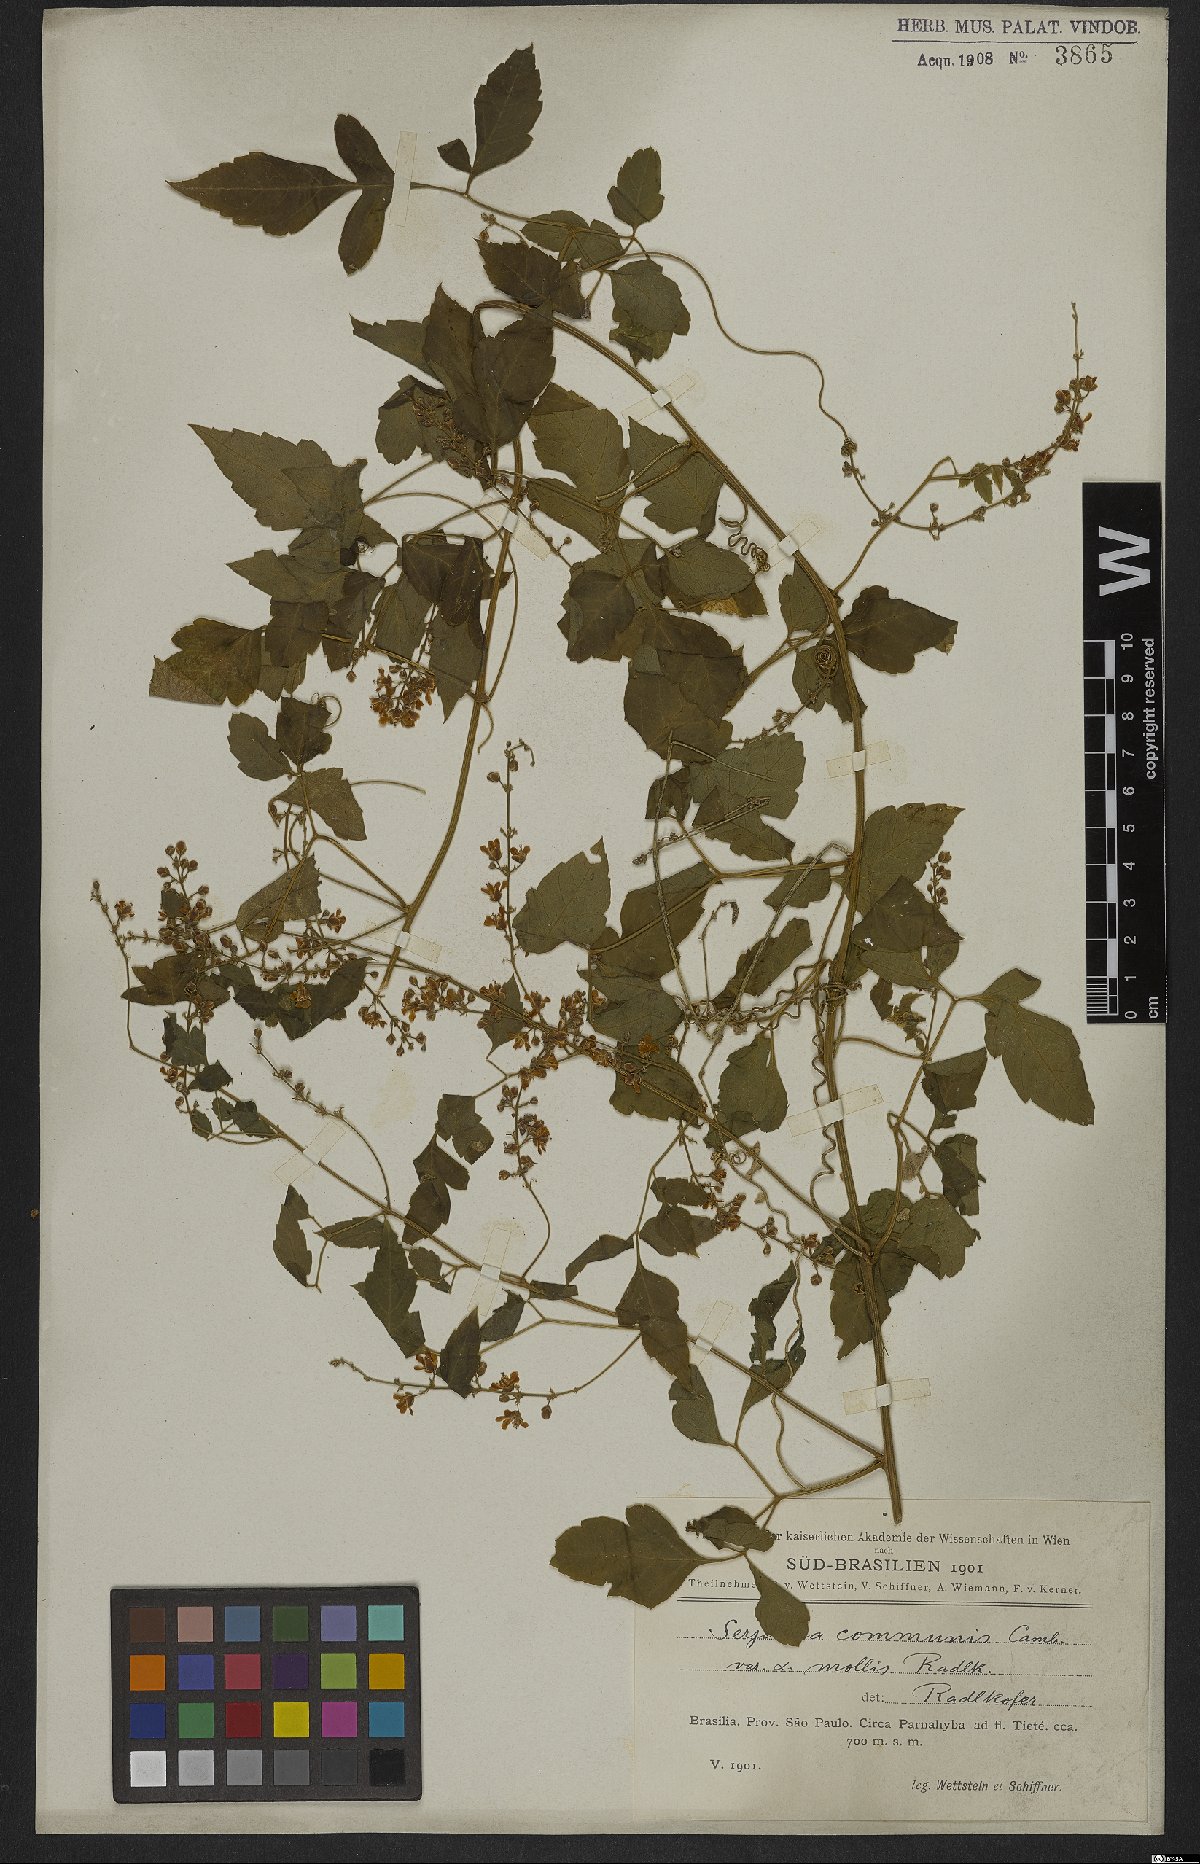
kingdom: Plantae
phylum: Tracheophyta
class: Magnoliopsida
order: Sapindales
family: Sapindaceae
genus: Serjania
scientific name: Serjania communis
